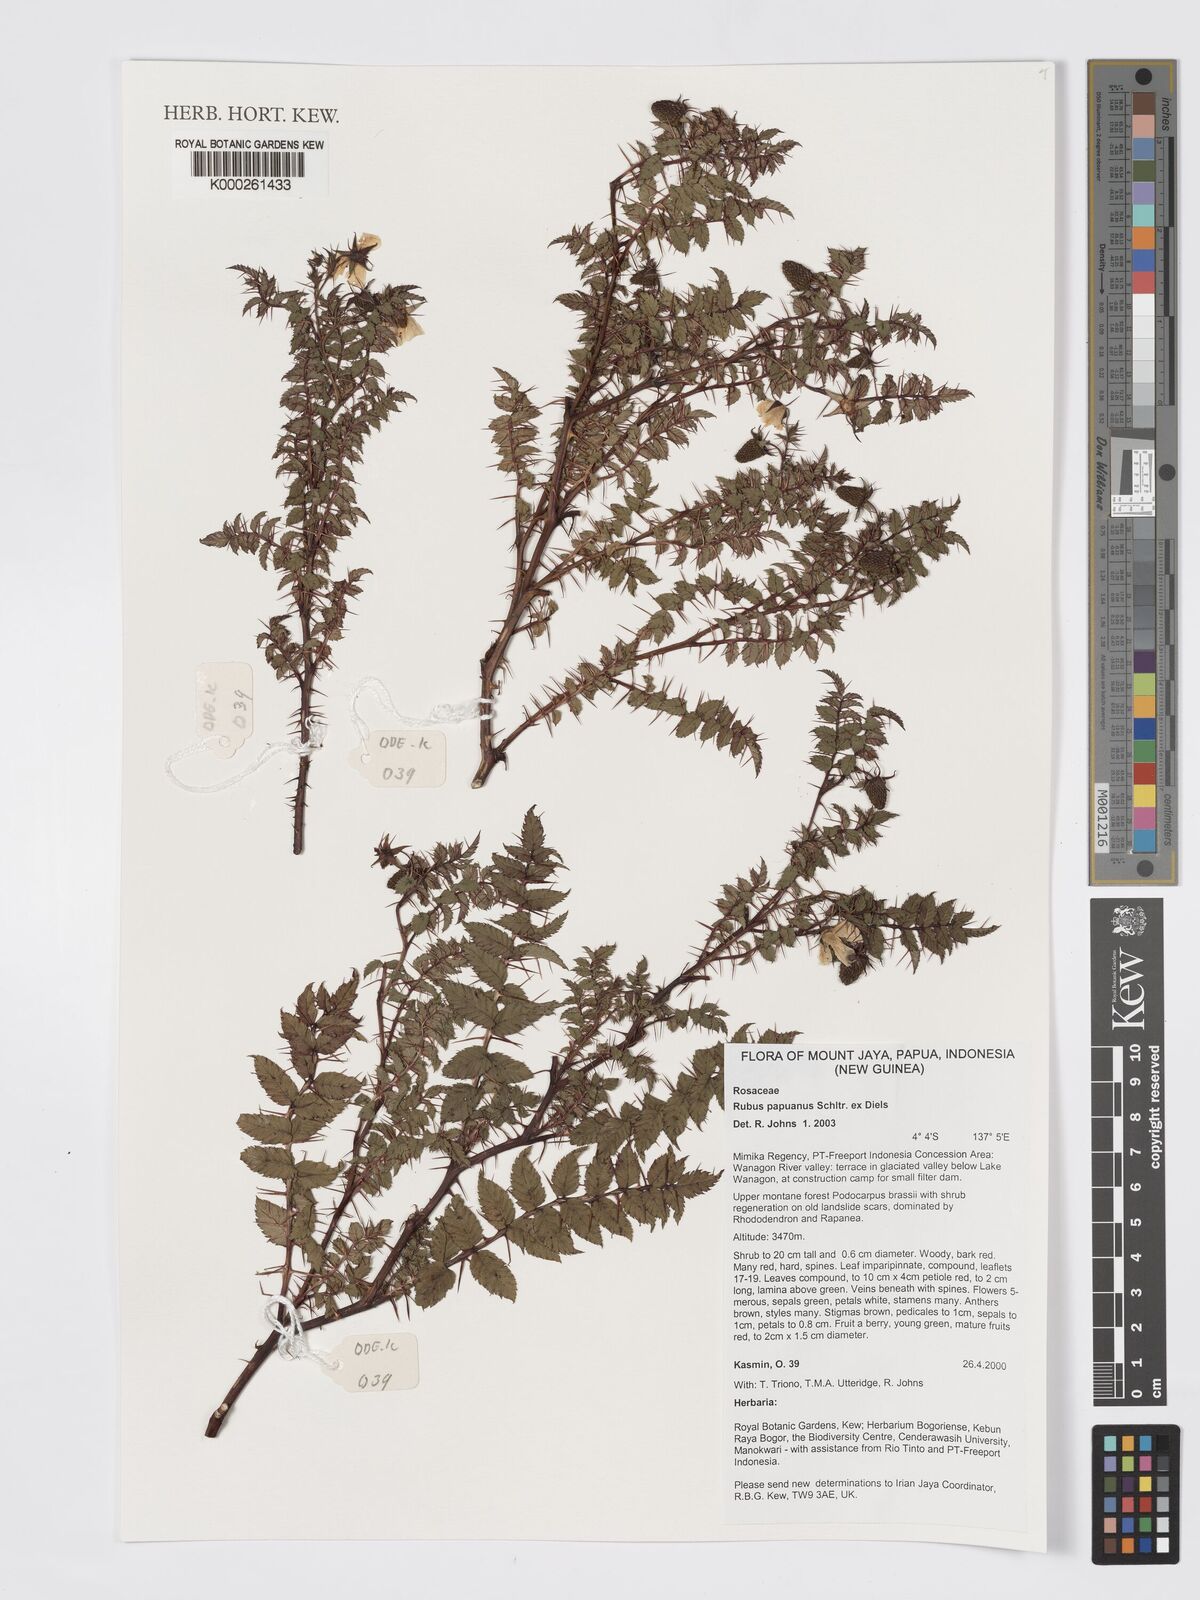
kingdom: Plantae
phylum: Tracheophyta
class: Magnoliopsida
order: Rosales
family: Rosaceae
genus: Rubus
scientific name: Rubus papuanus
